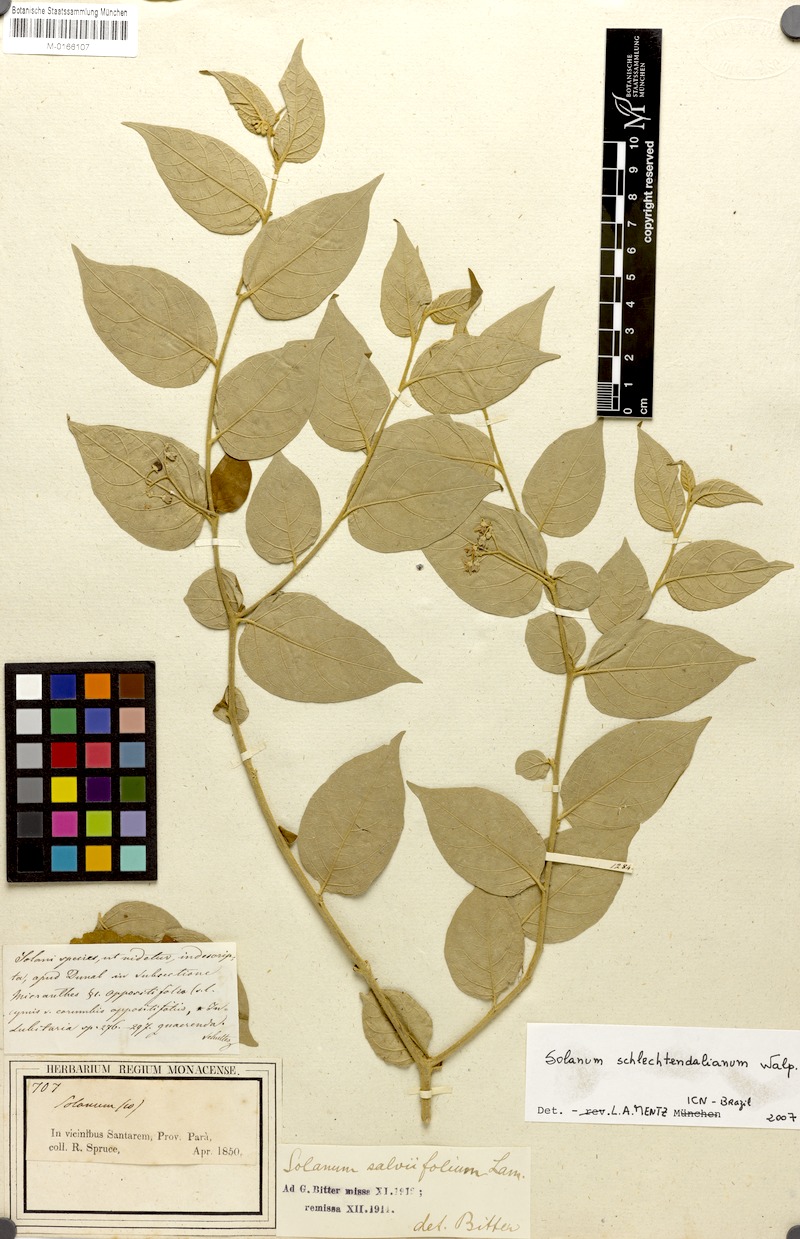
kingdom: Plantae
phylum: Tracheophyta
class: Magnoliopsida
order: Solanales
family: Solanaceae
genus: Solanum
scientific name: Solanum schlechtendalianum
